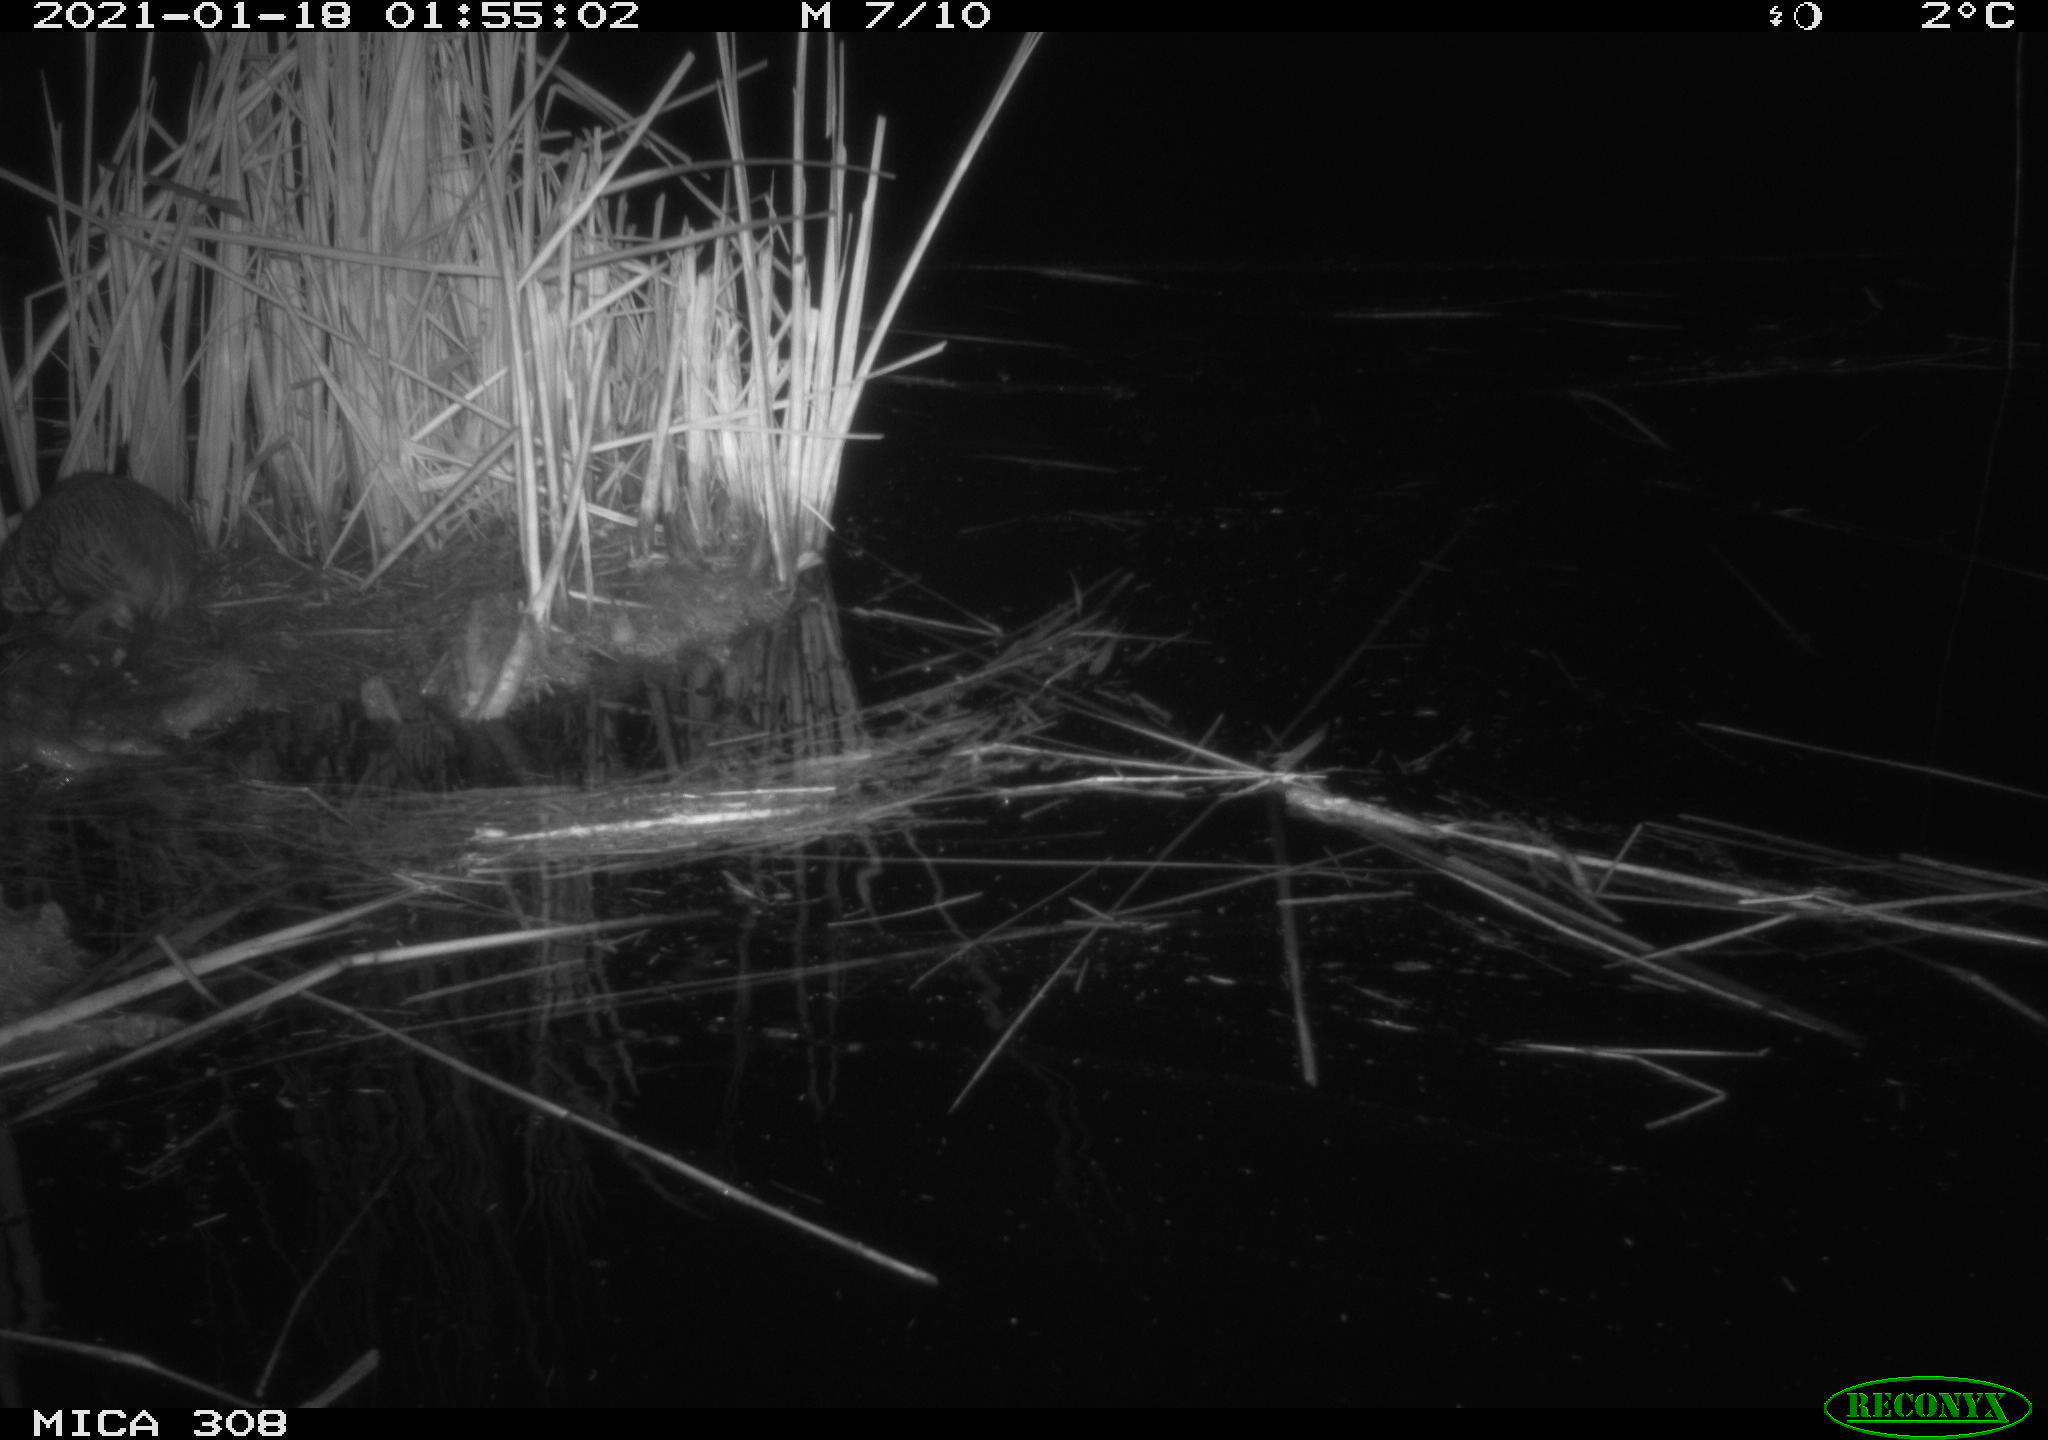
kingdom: Animalia
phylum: Chordata
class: Mammalia
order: Rodentia
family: Cricetidae
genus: Ondatra
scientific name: Ondatra zibethicus
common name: Muskrat
